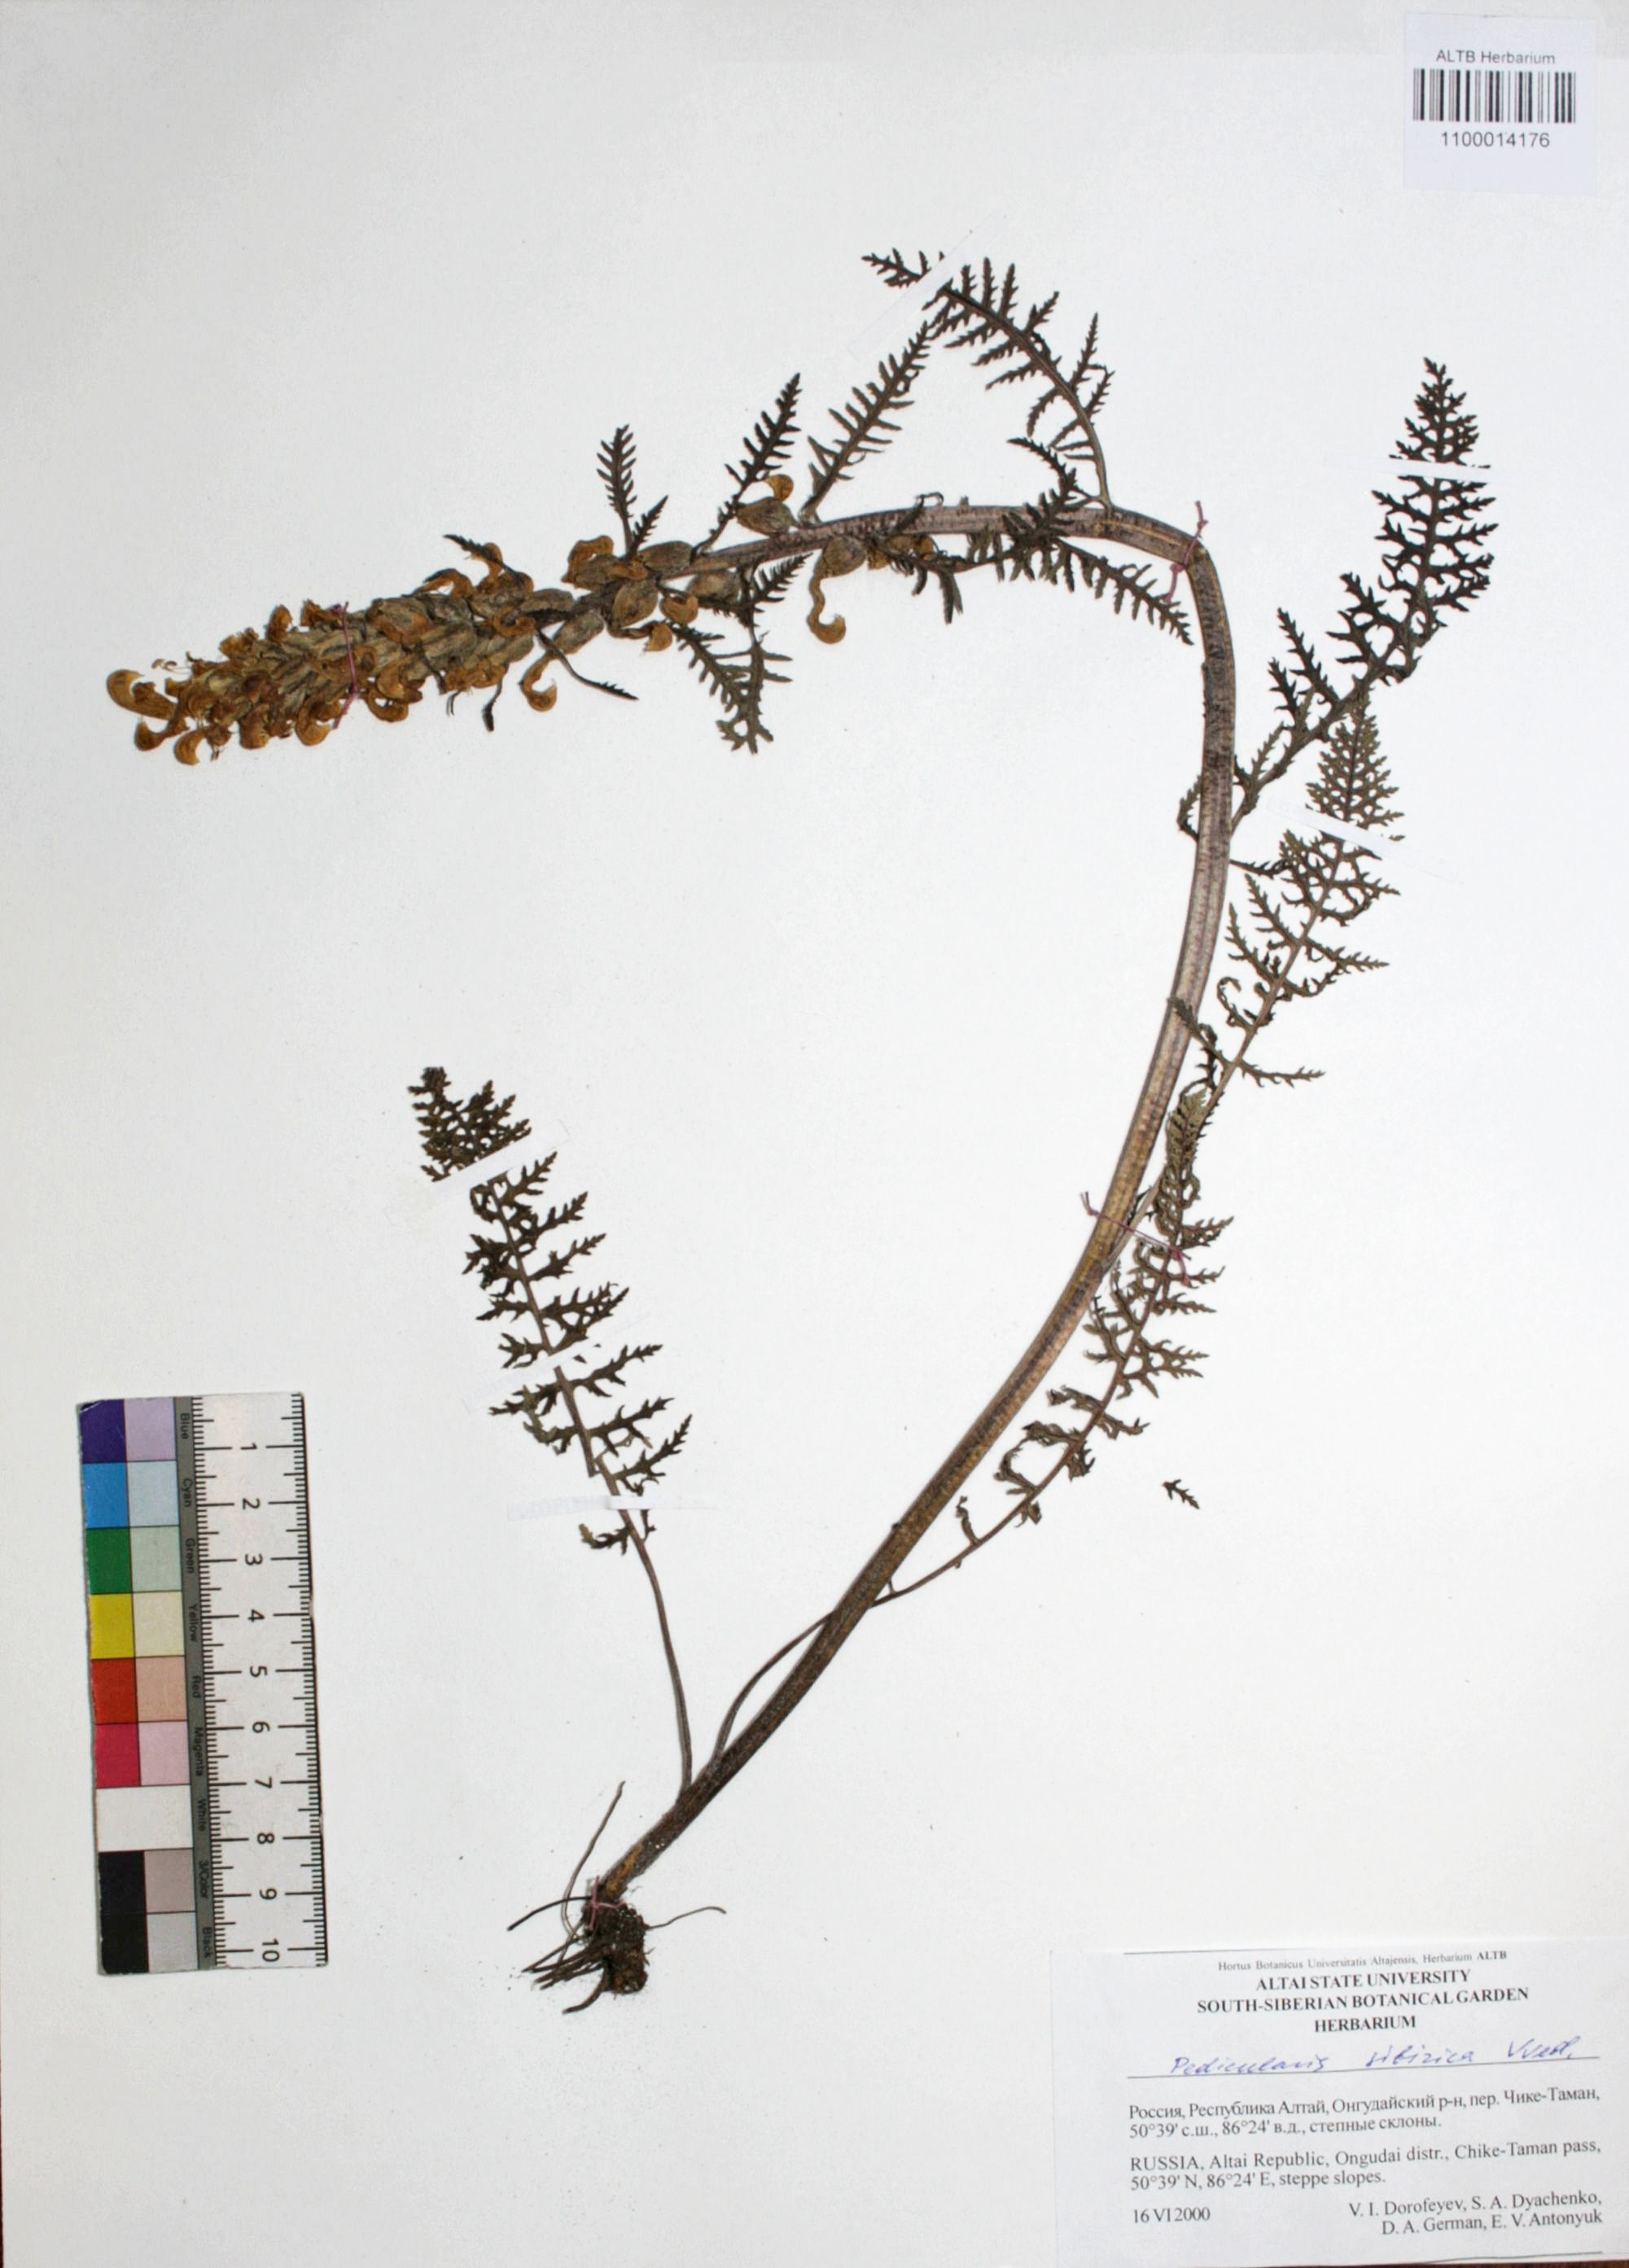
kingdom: Plantae
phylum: Tracheophyta
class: Magnoliopsida
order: Lamiales
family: Orobanchaceae
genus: Pedicularis
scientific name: Pedicularis sibirica
